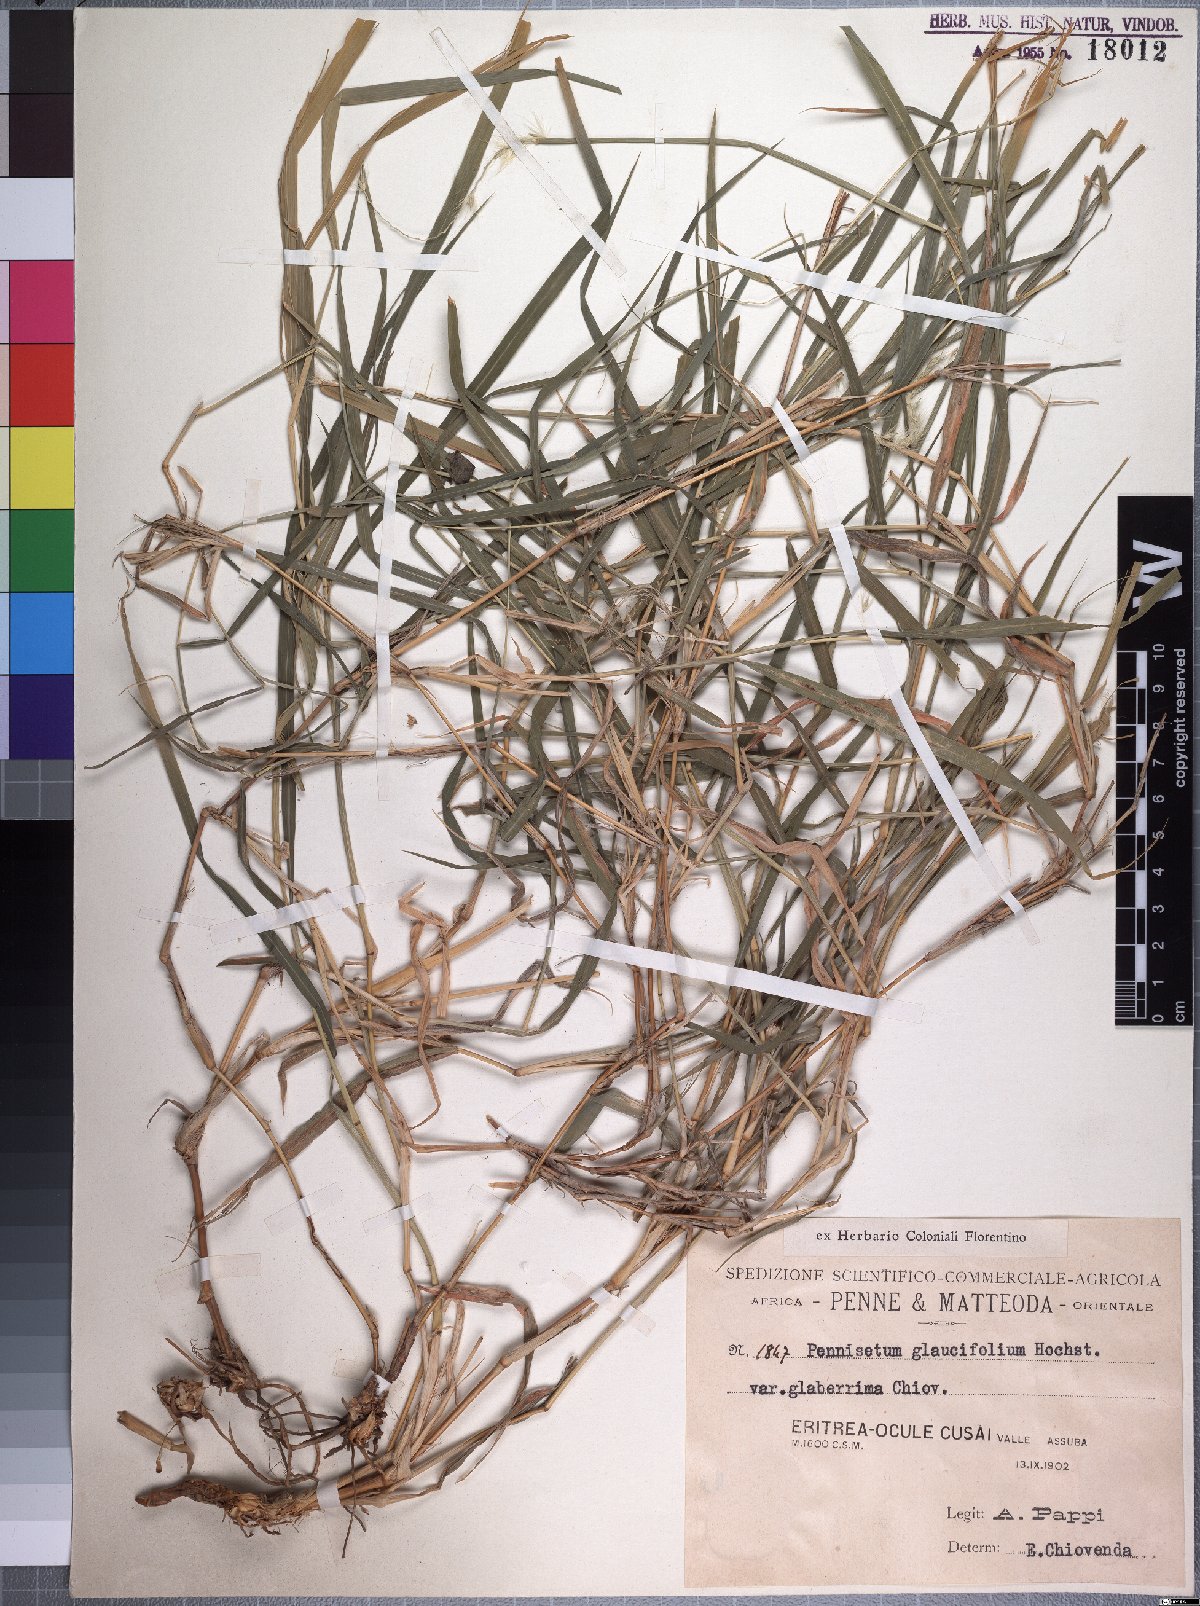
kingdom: Plantae
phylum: Tracheophyta
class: Liliopsida
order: Poales
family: Poaceae
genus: Cenchrus
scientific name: Cenchrus glaucifolius
